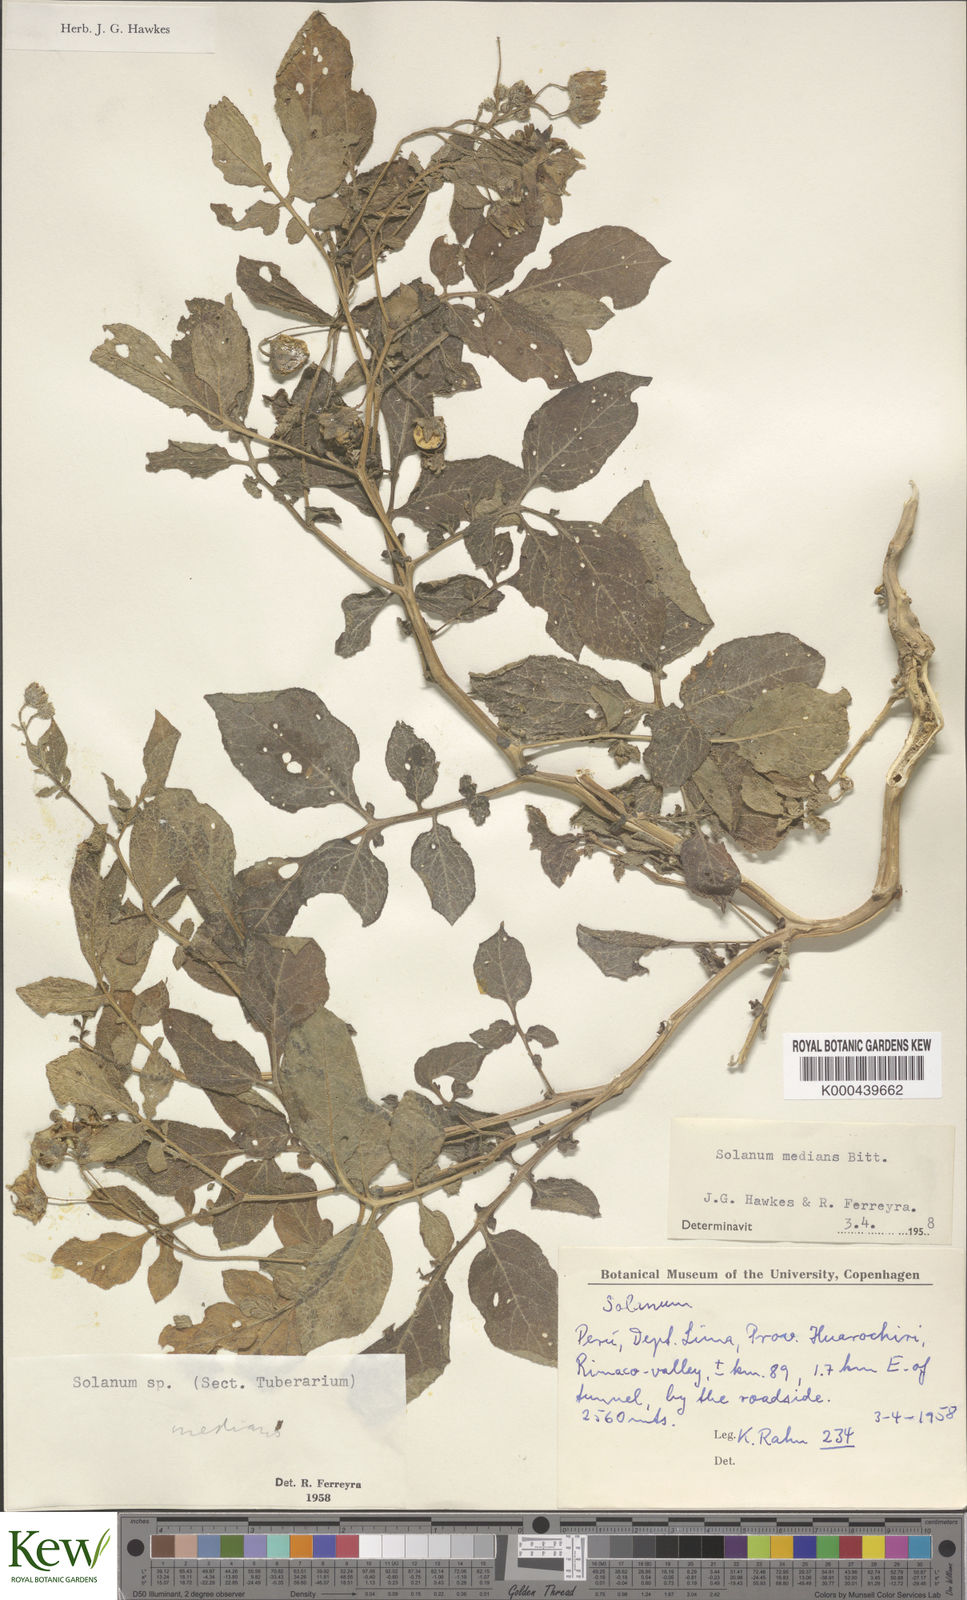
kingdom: Plantae
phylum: Tracheophyta
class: Magnoliopsida
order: Solanales
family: Solanaceae
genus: Solanum
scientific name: Solanum medians
